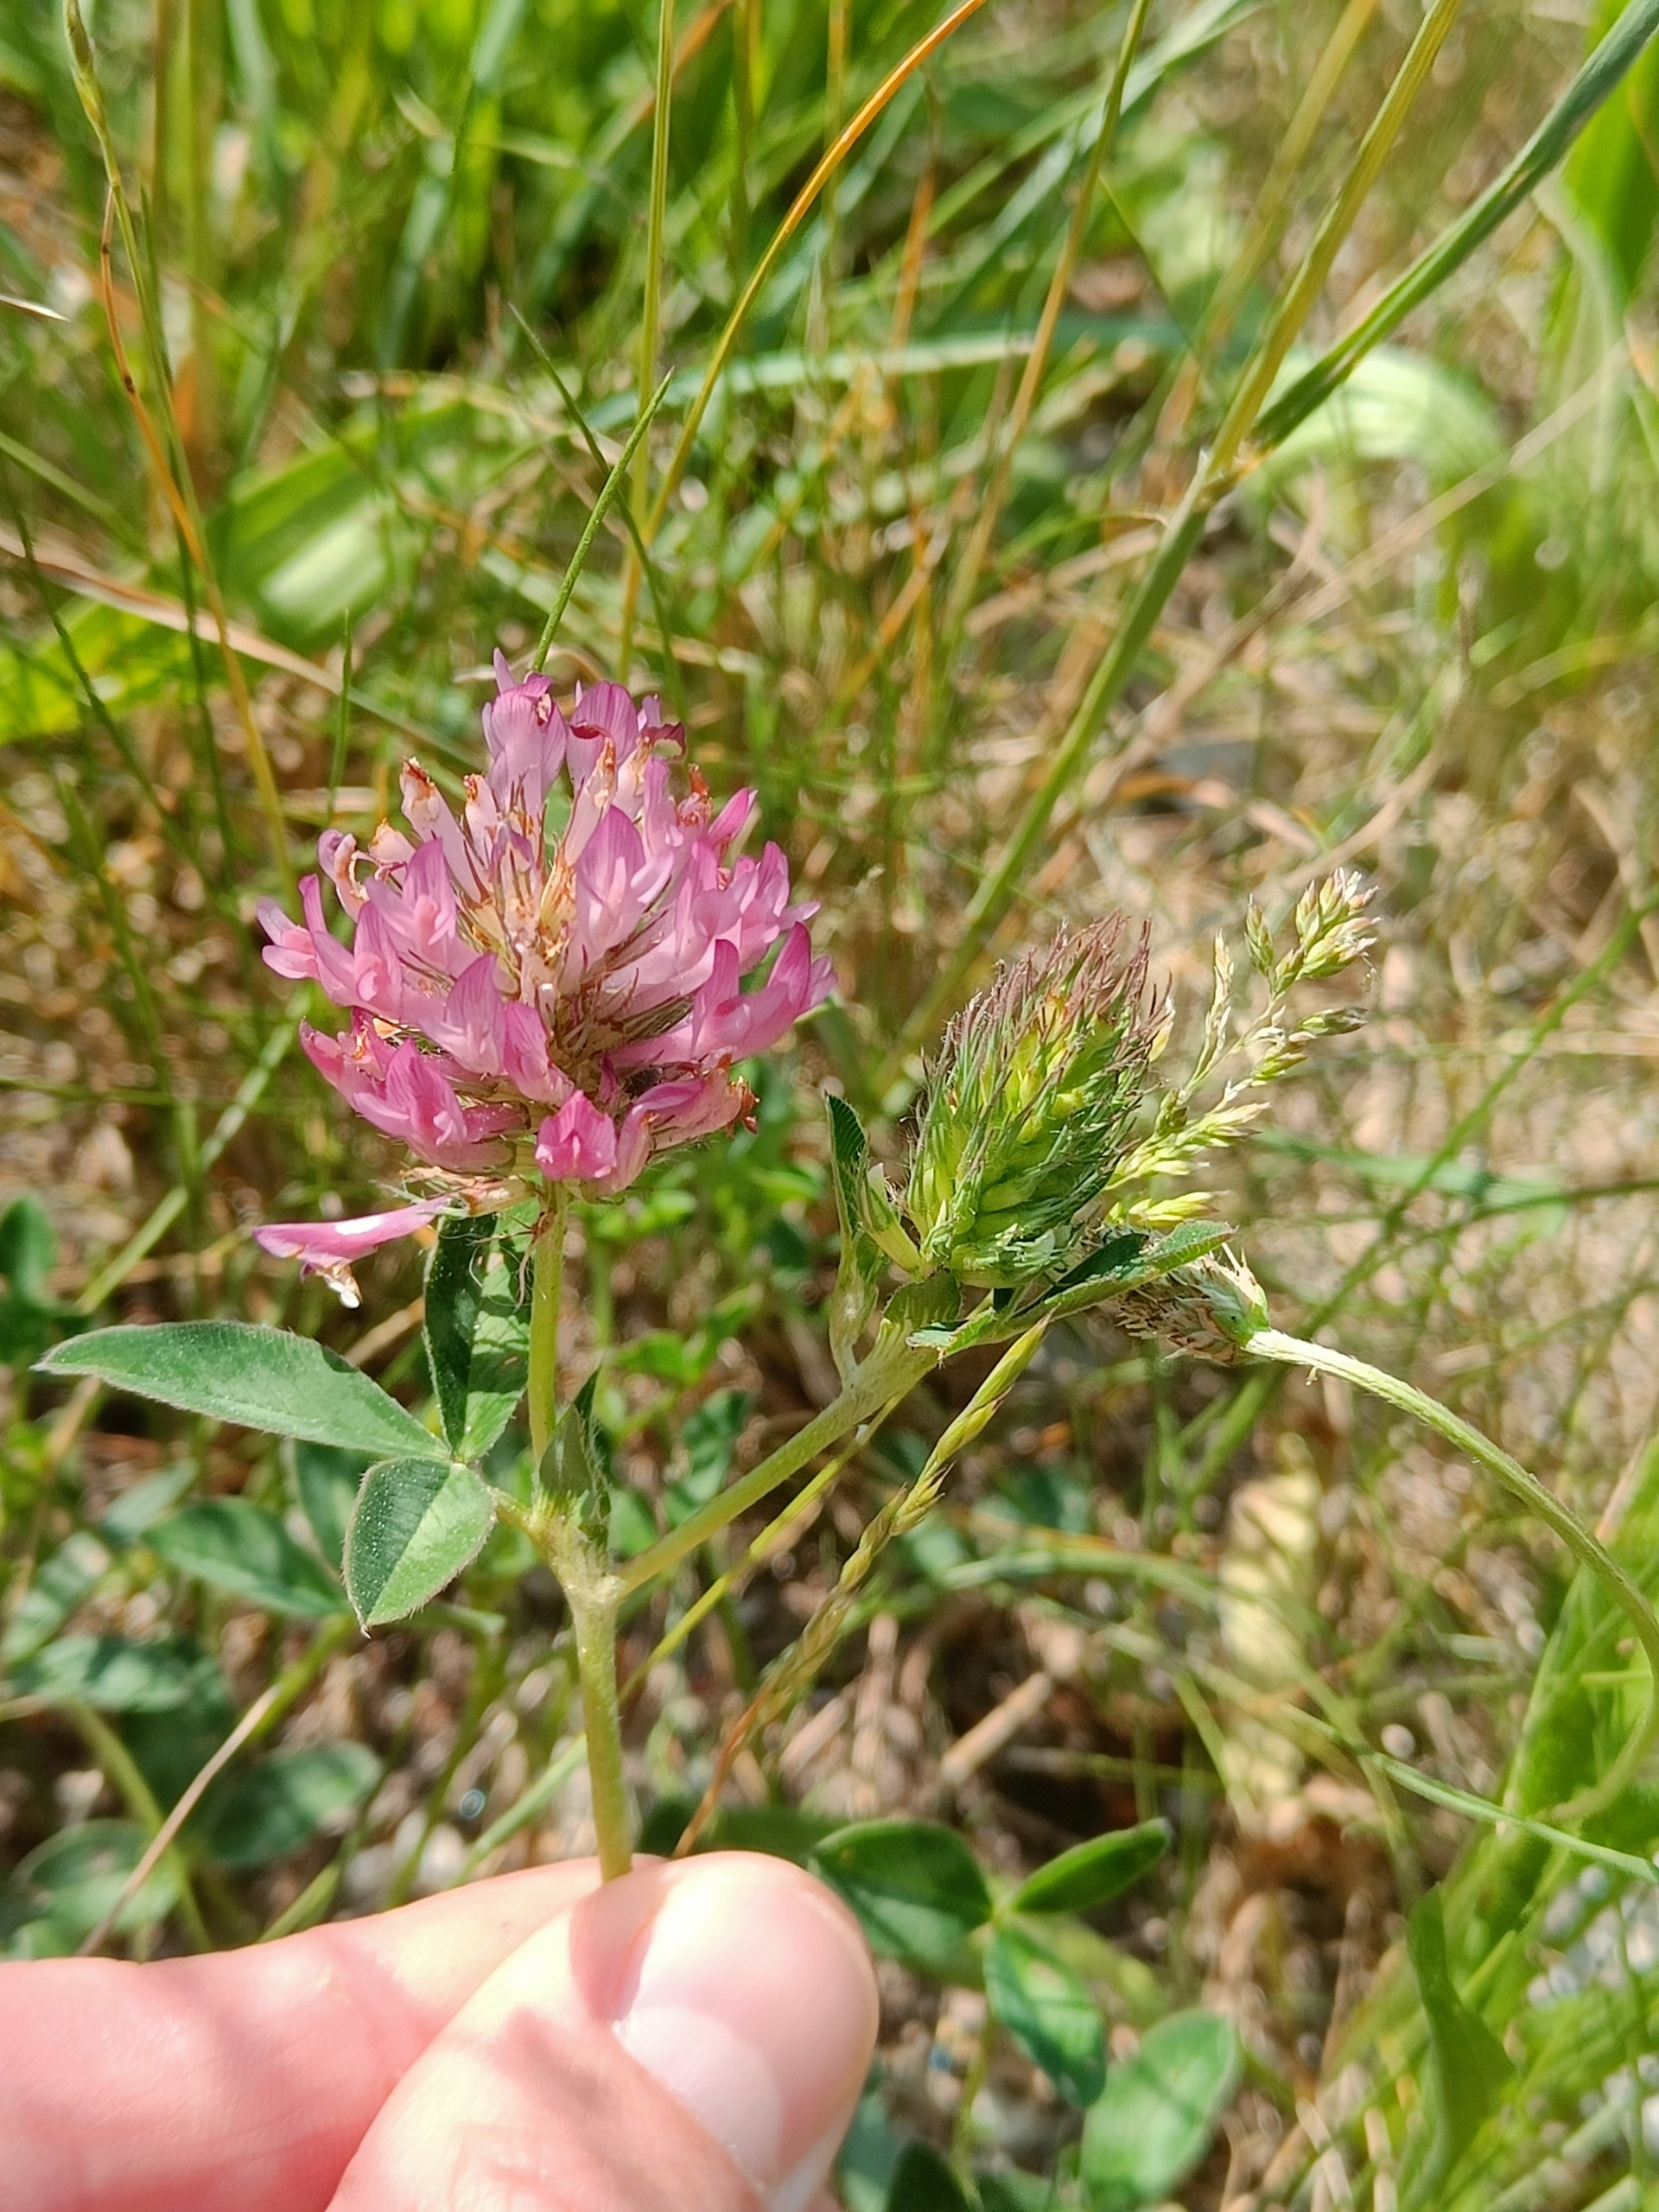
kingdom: Plantae
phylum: Tracheophyta
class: Magnoliopsida
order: Fabales
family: Fabaceae
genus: Trifolium
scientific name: Trifolium medium
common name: Bugtet kløver
